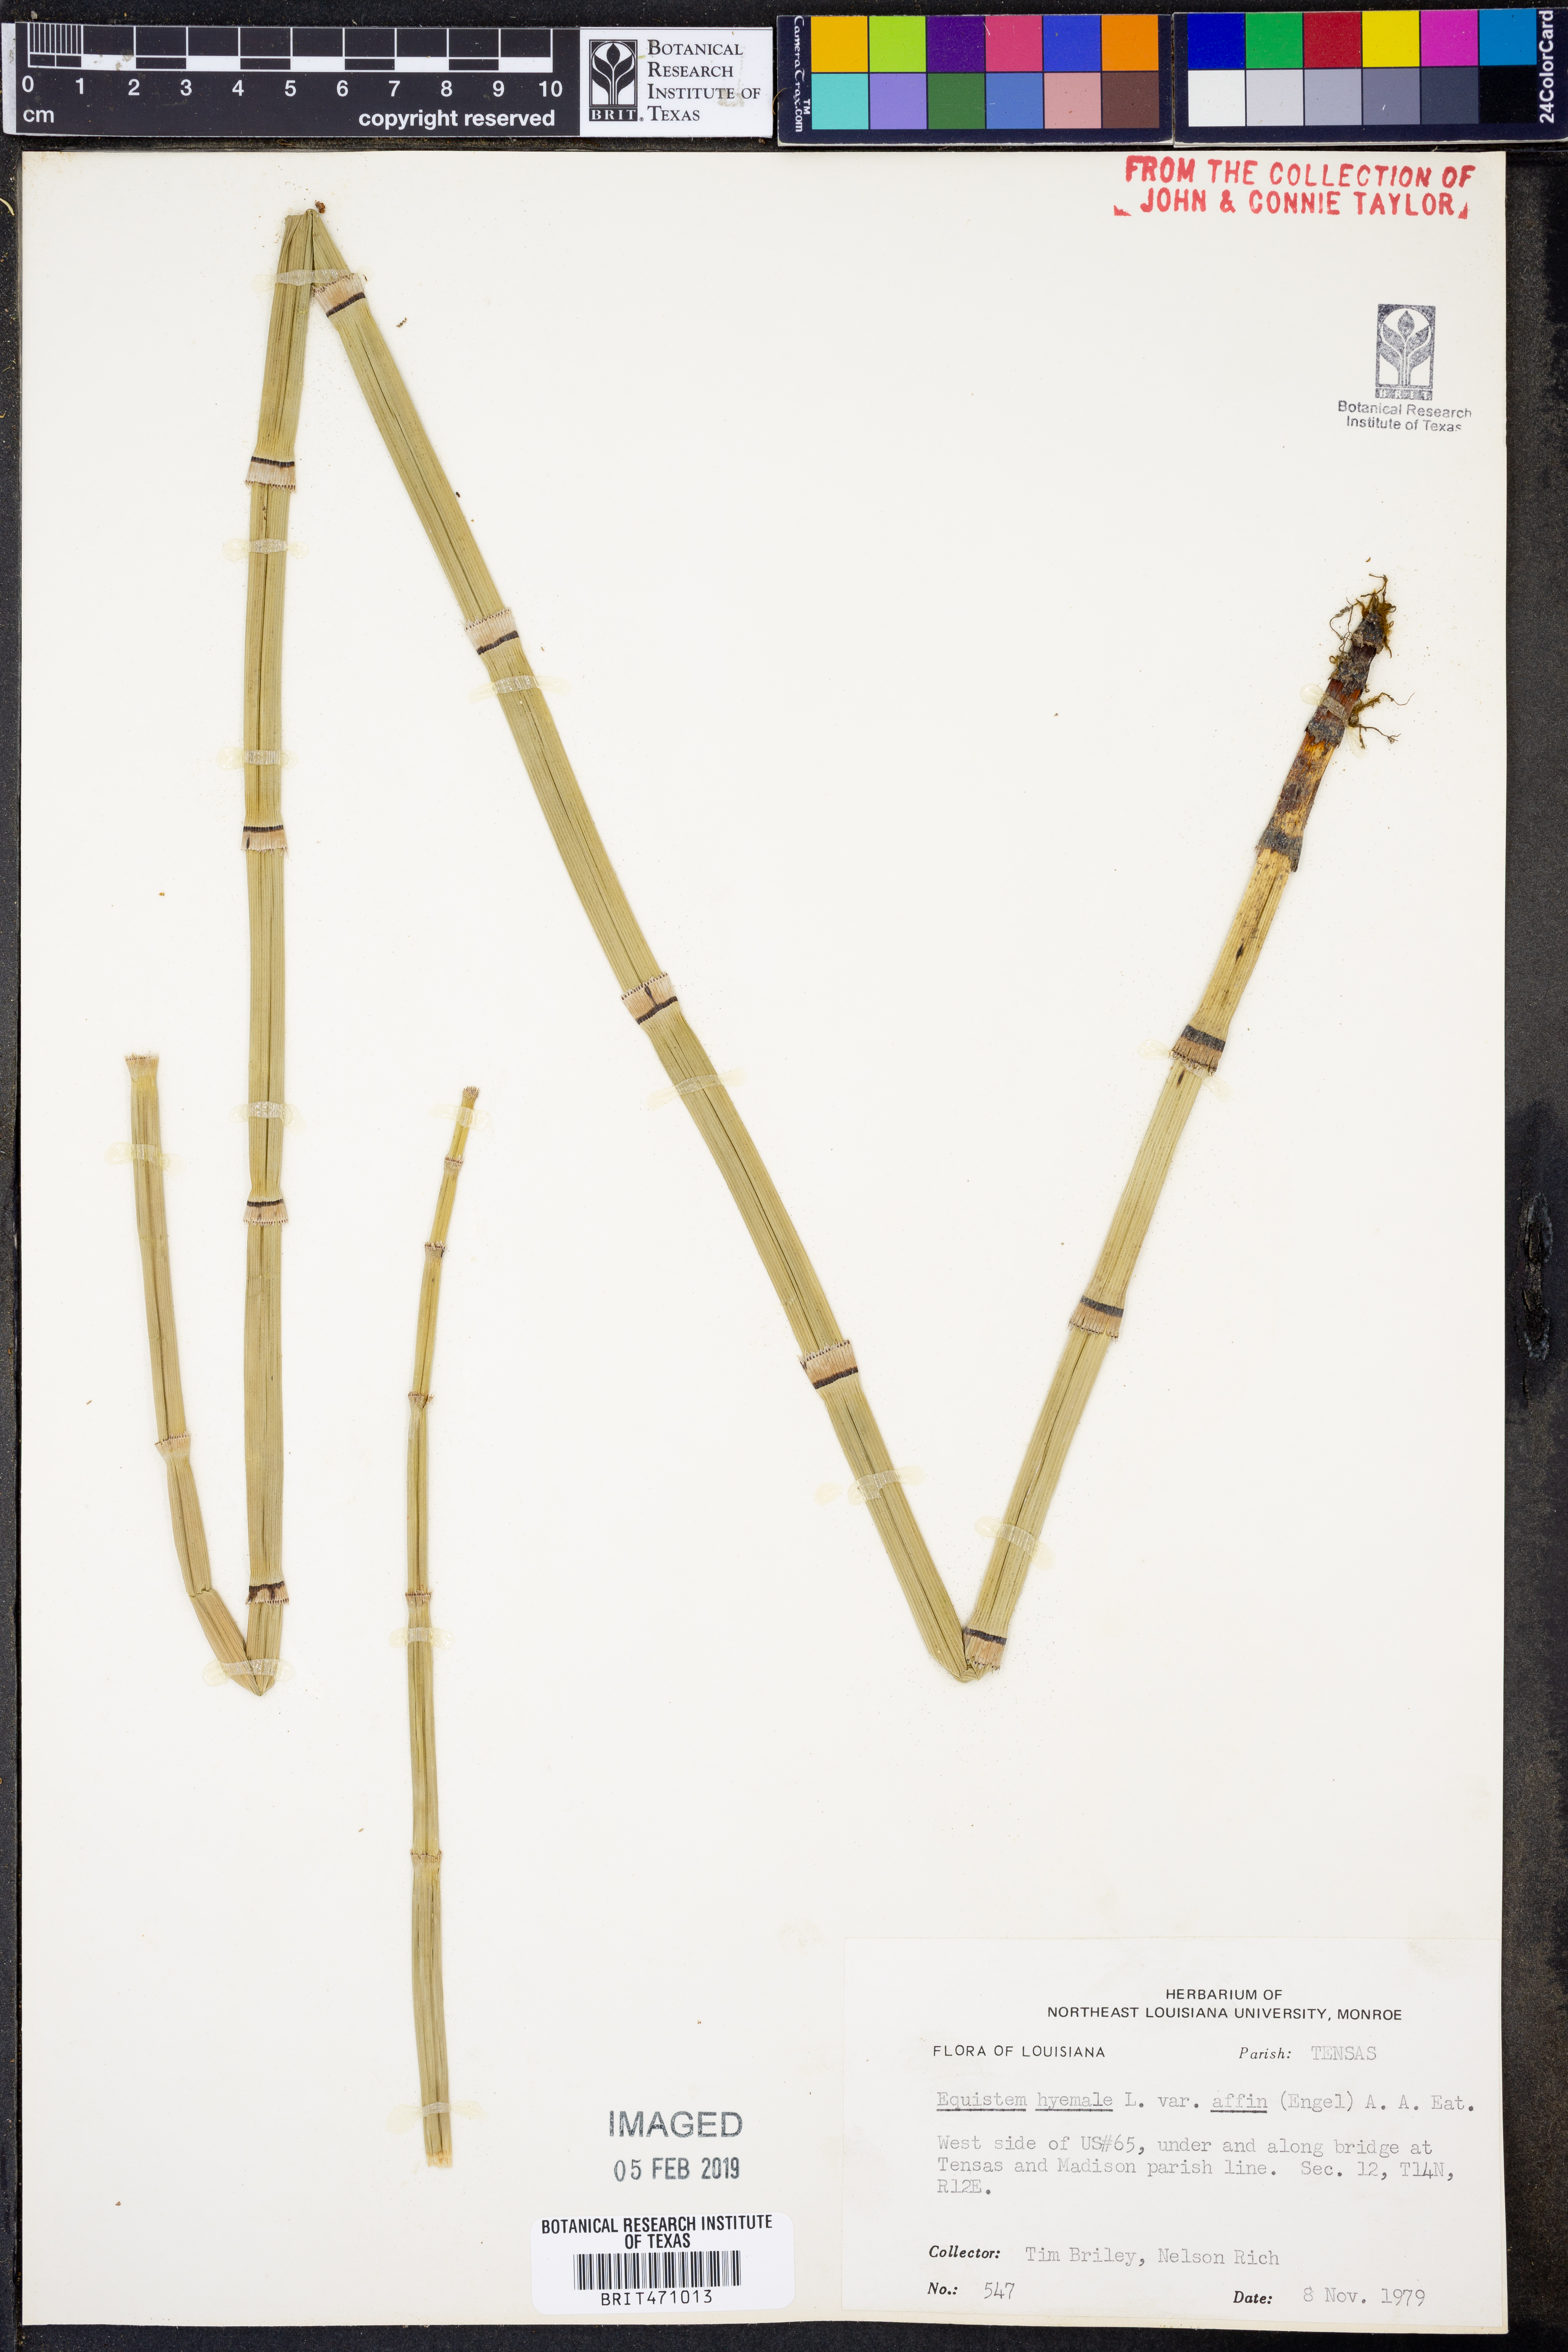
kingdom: Plantae
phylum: Tracheophyta
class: Polypodiopsida
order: Equisetales
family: Equisetaceae
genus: Equisetum
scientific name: Equisetum praealtum
